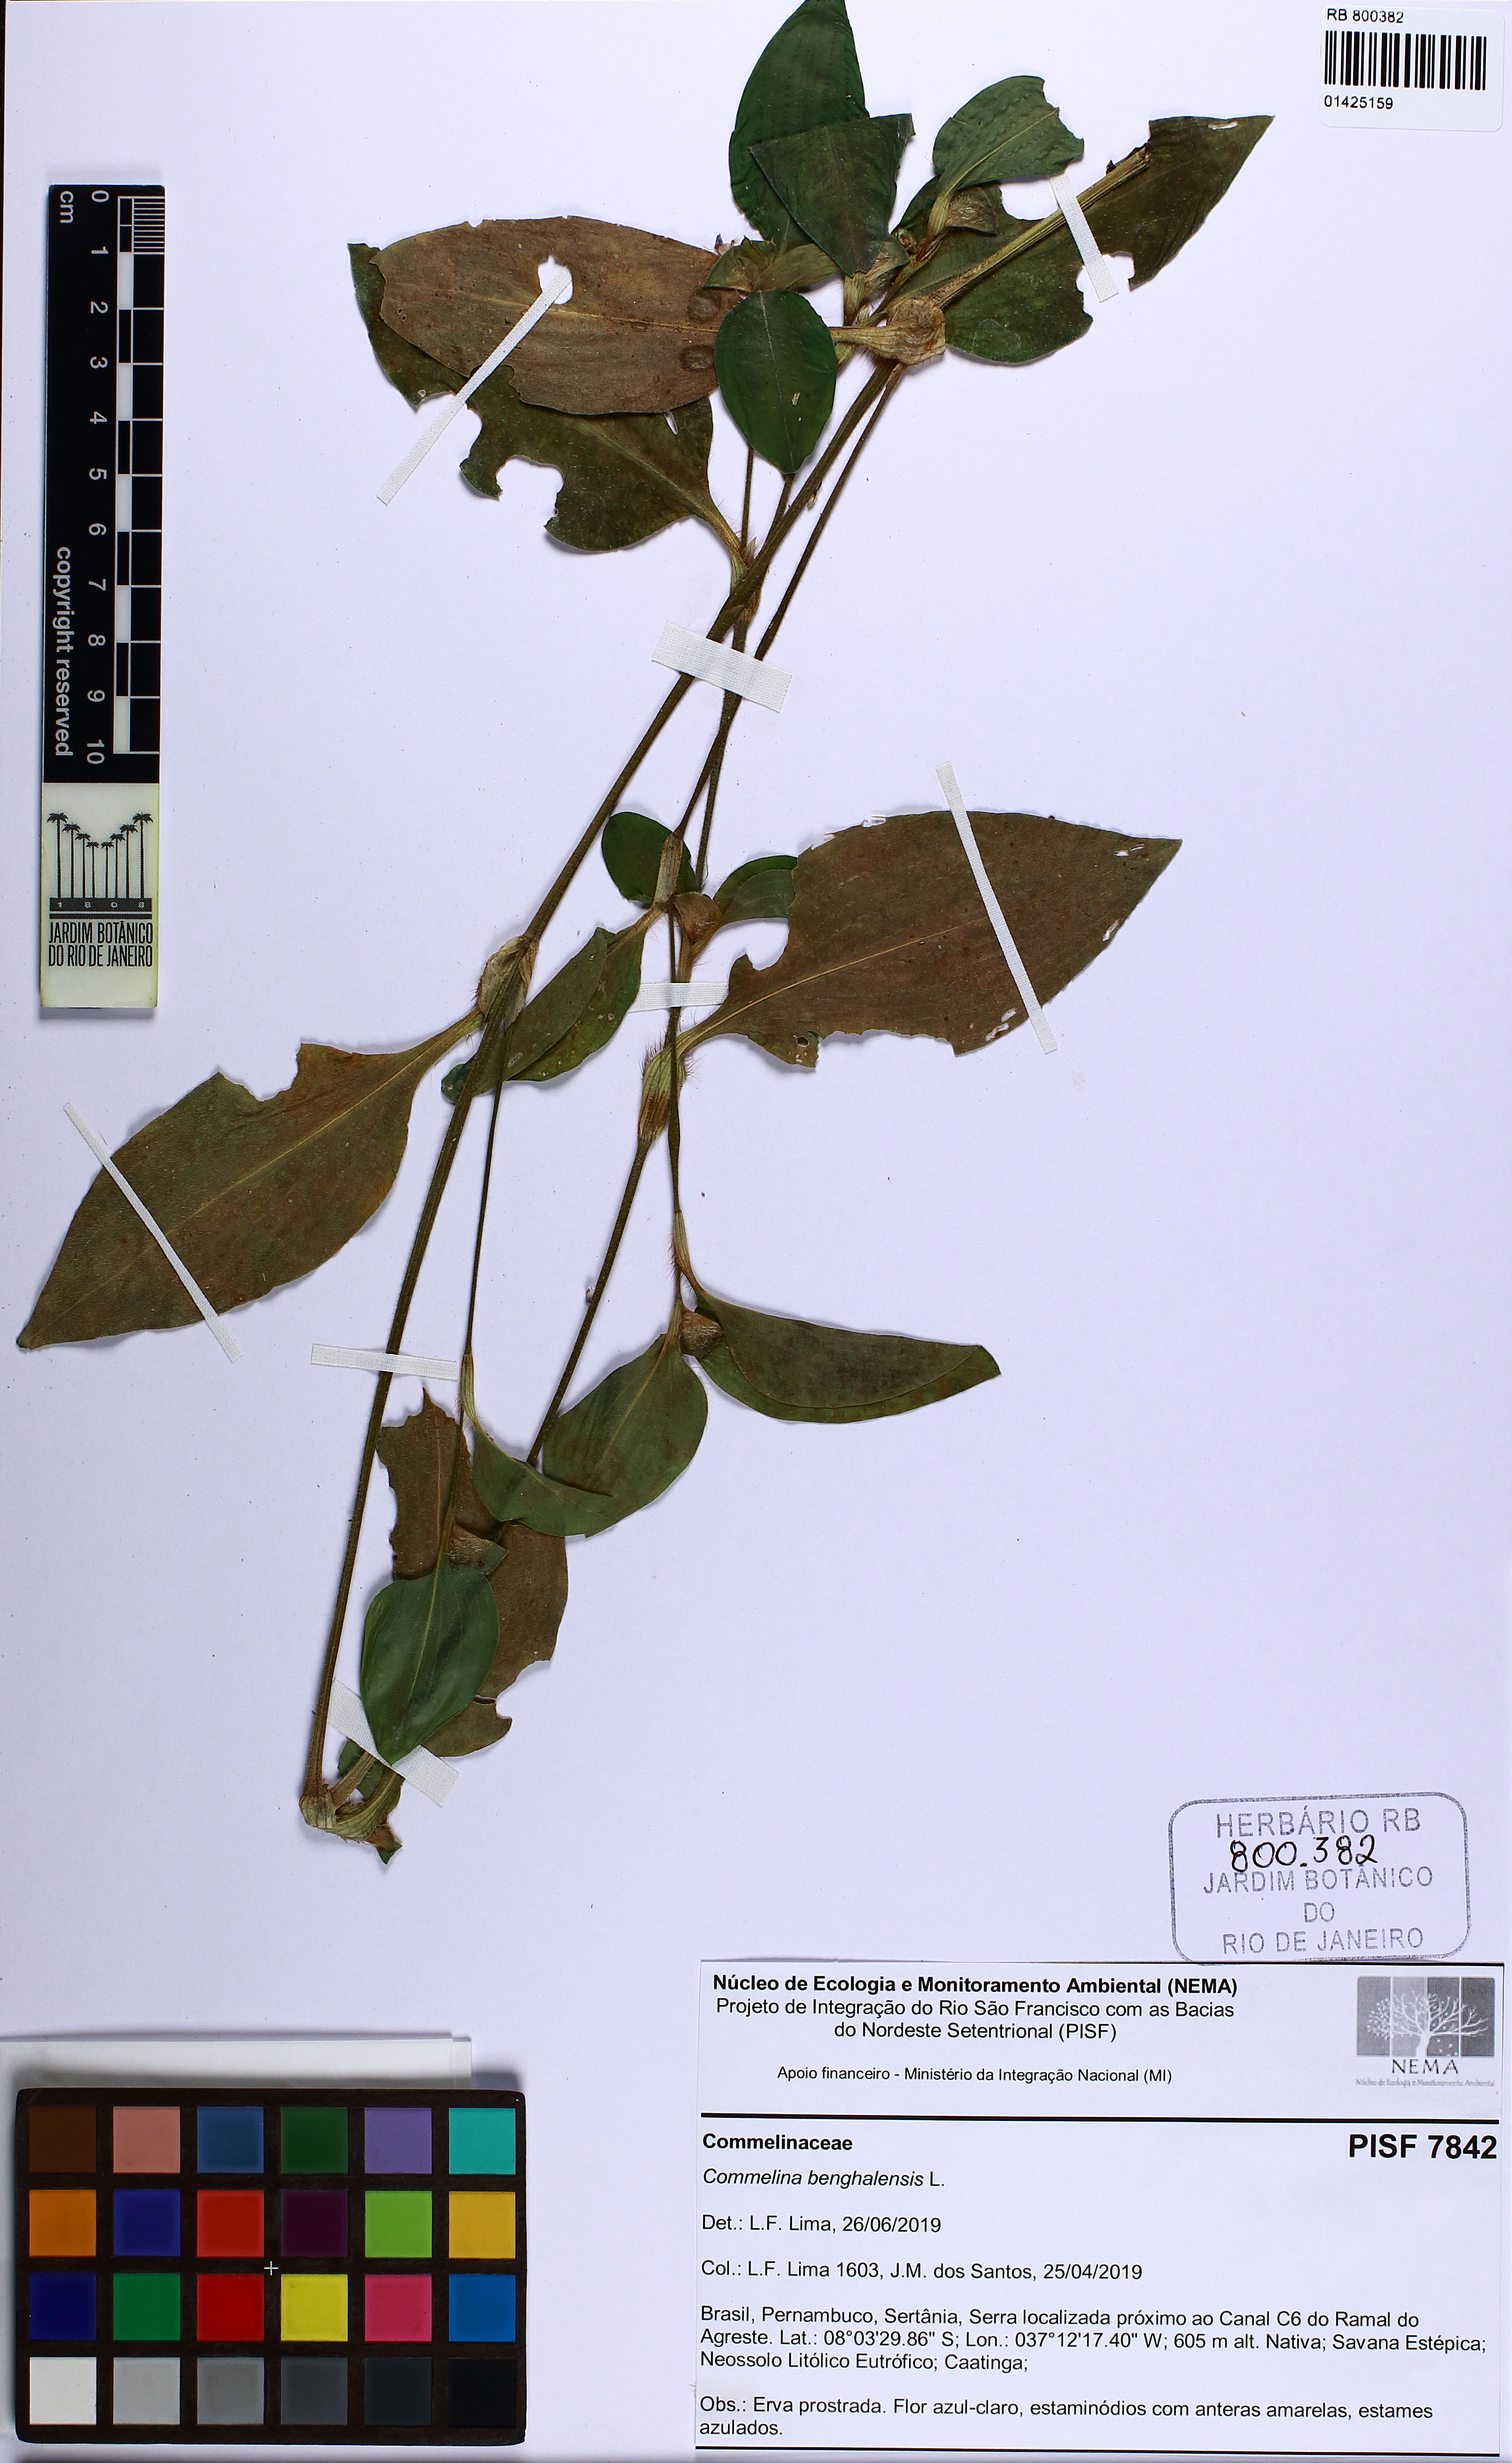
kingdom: Plantae
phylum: Tracheophyta
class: Liliopsida
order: Commelinales
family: Commelinaceae
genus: Commelina
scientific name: Commelina benghalensis
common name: Jio
